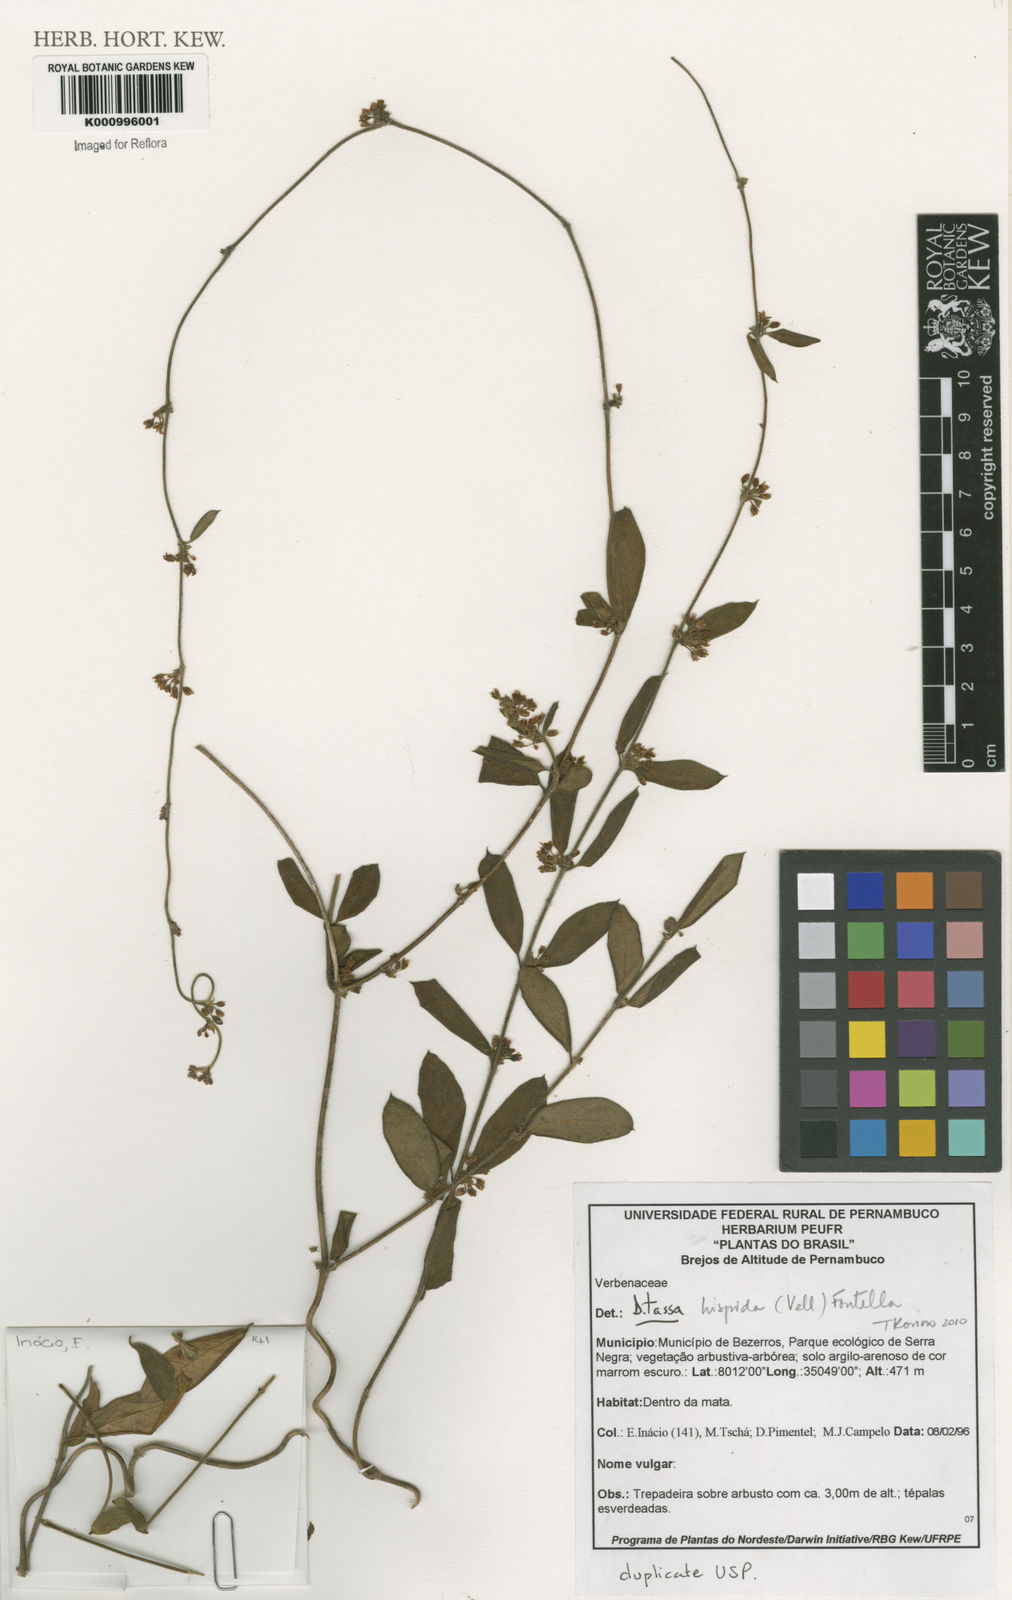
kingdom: Plantae
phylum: Tracheophyta
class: Magnoliopsida
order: Gentianales
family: Apocynaceae
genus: Ditassa
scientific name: Ditassa hispida
